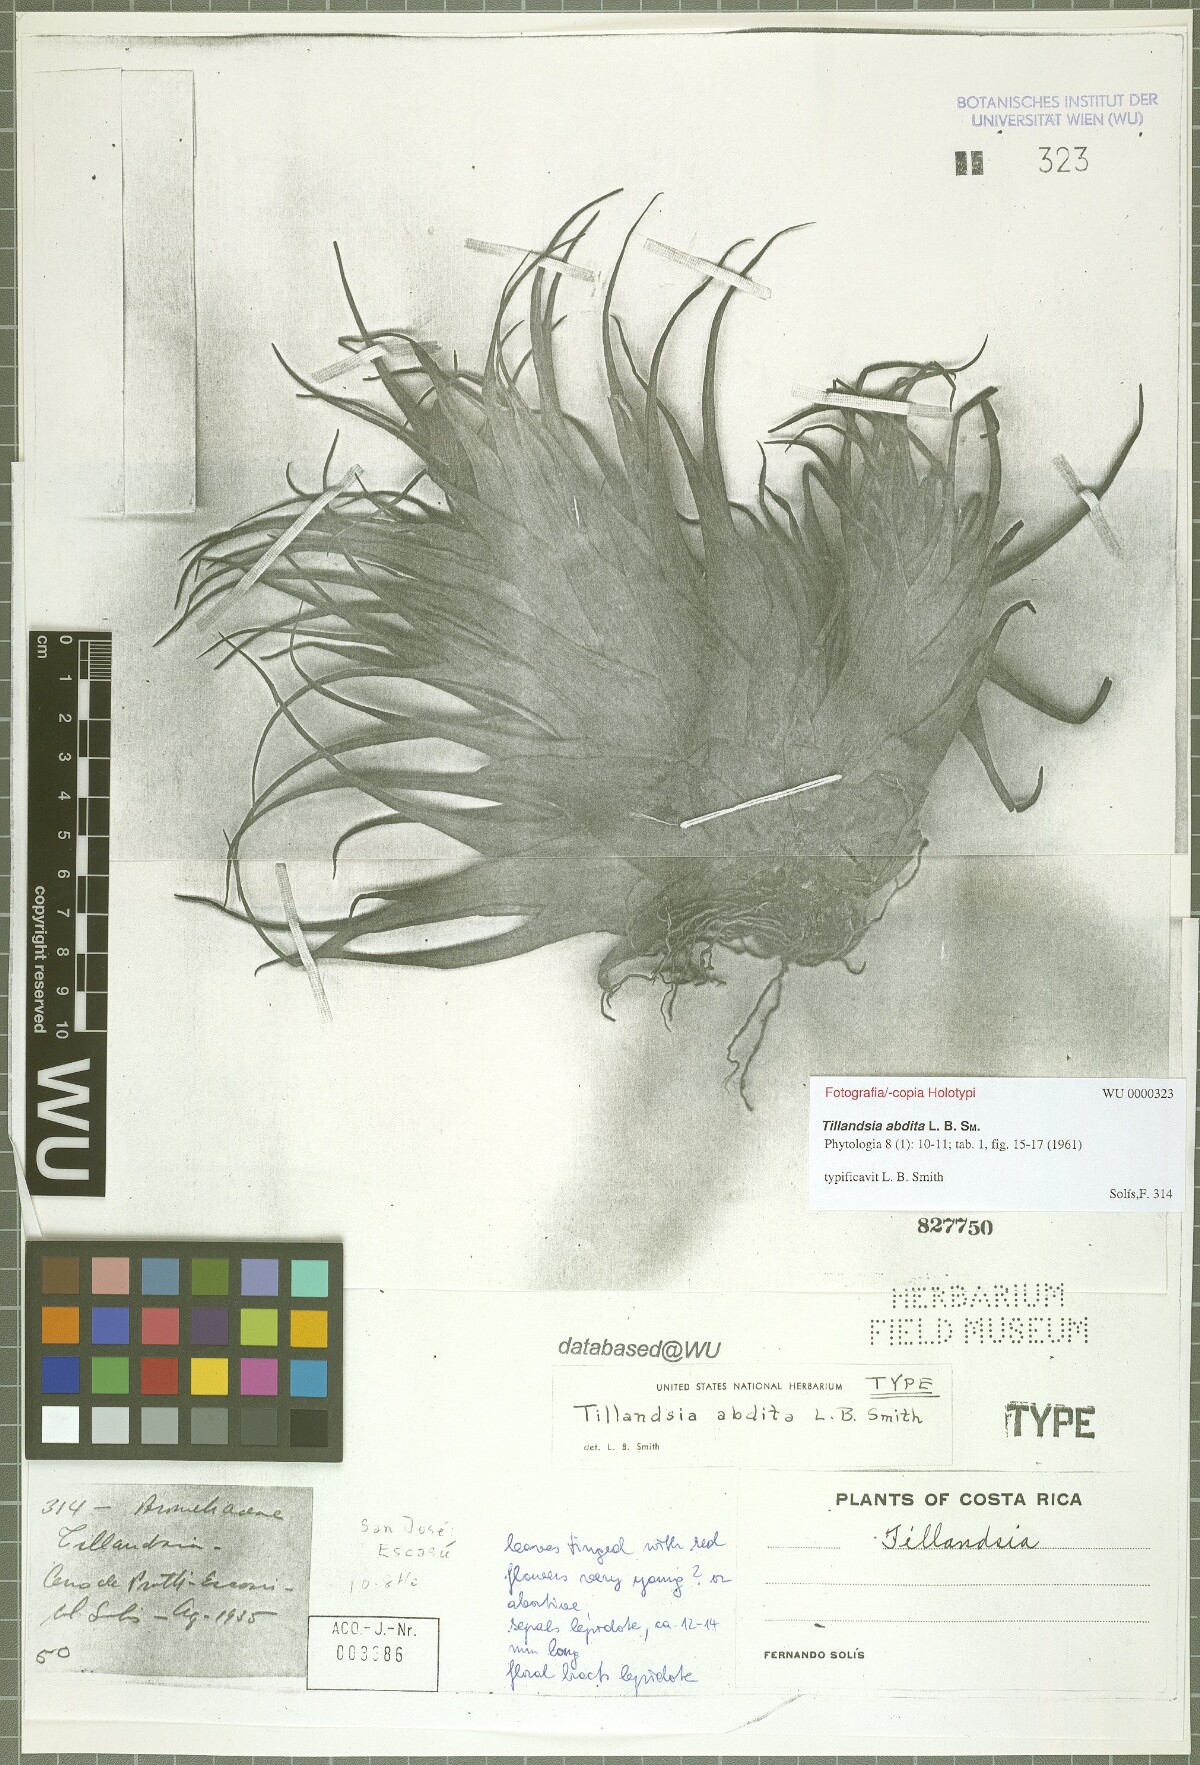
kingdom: Plantae
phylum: Tracheophyta
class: Liliopsida
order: Poales
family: Bromeliaceae
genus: Tillandsia
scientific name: Tillandsia abdita
